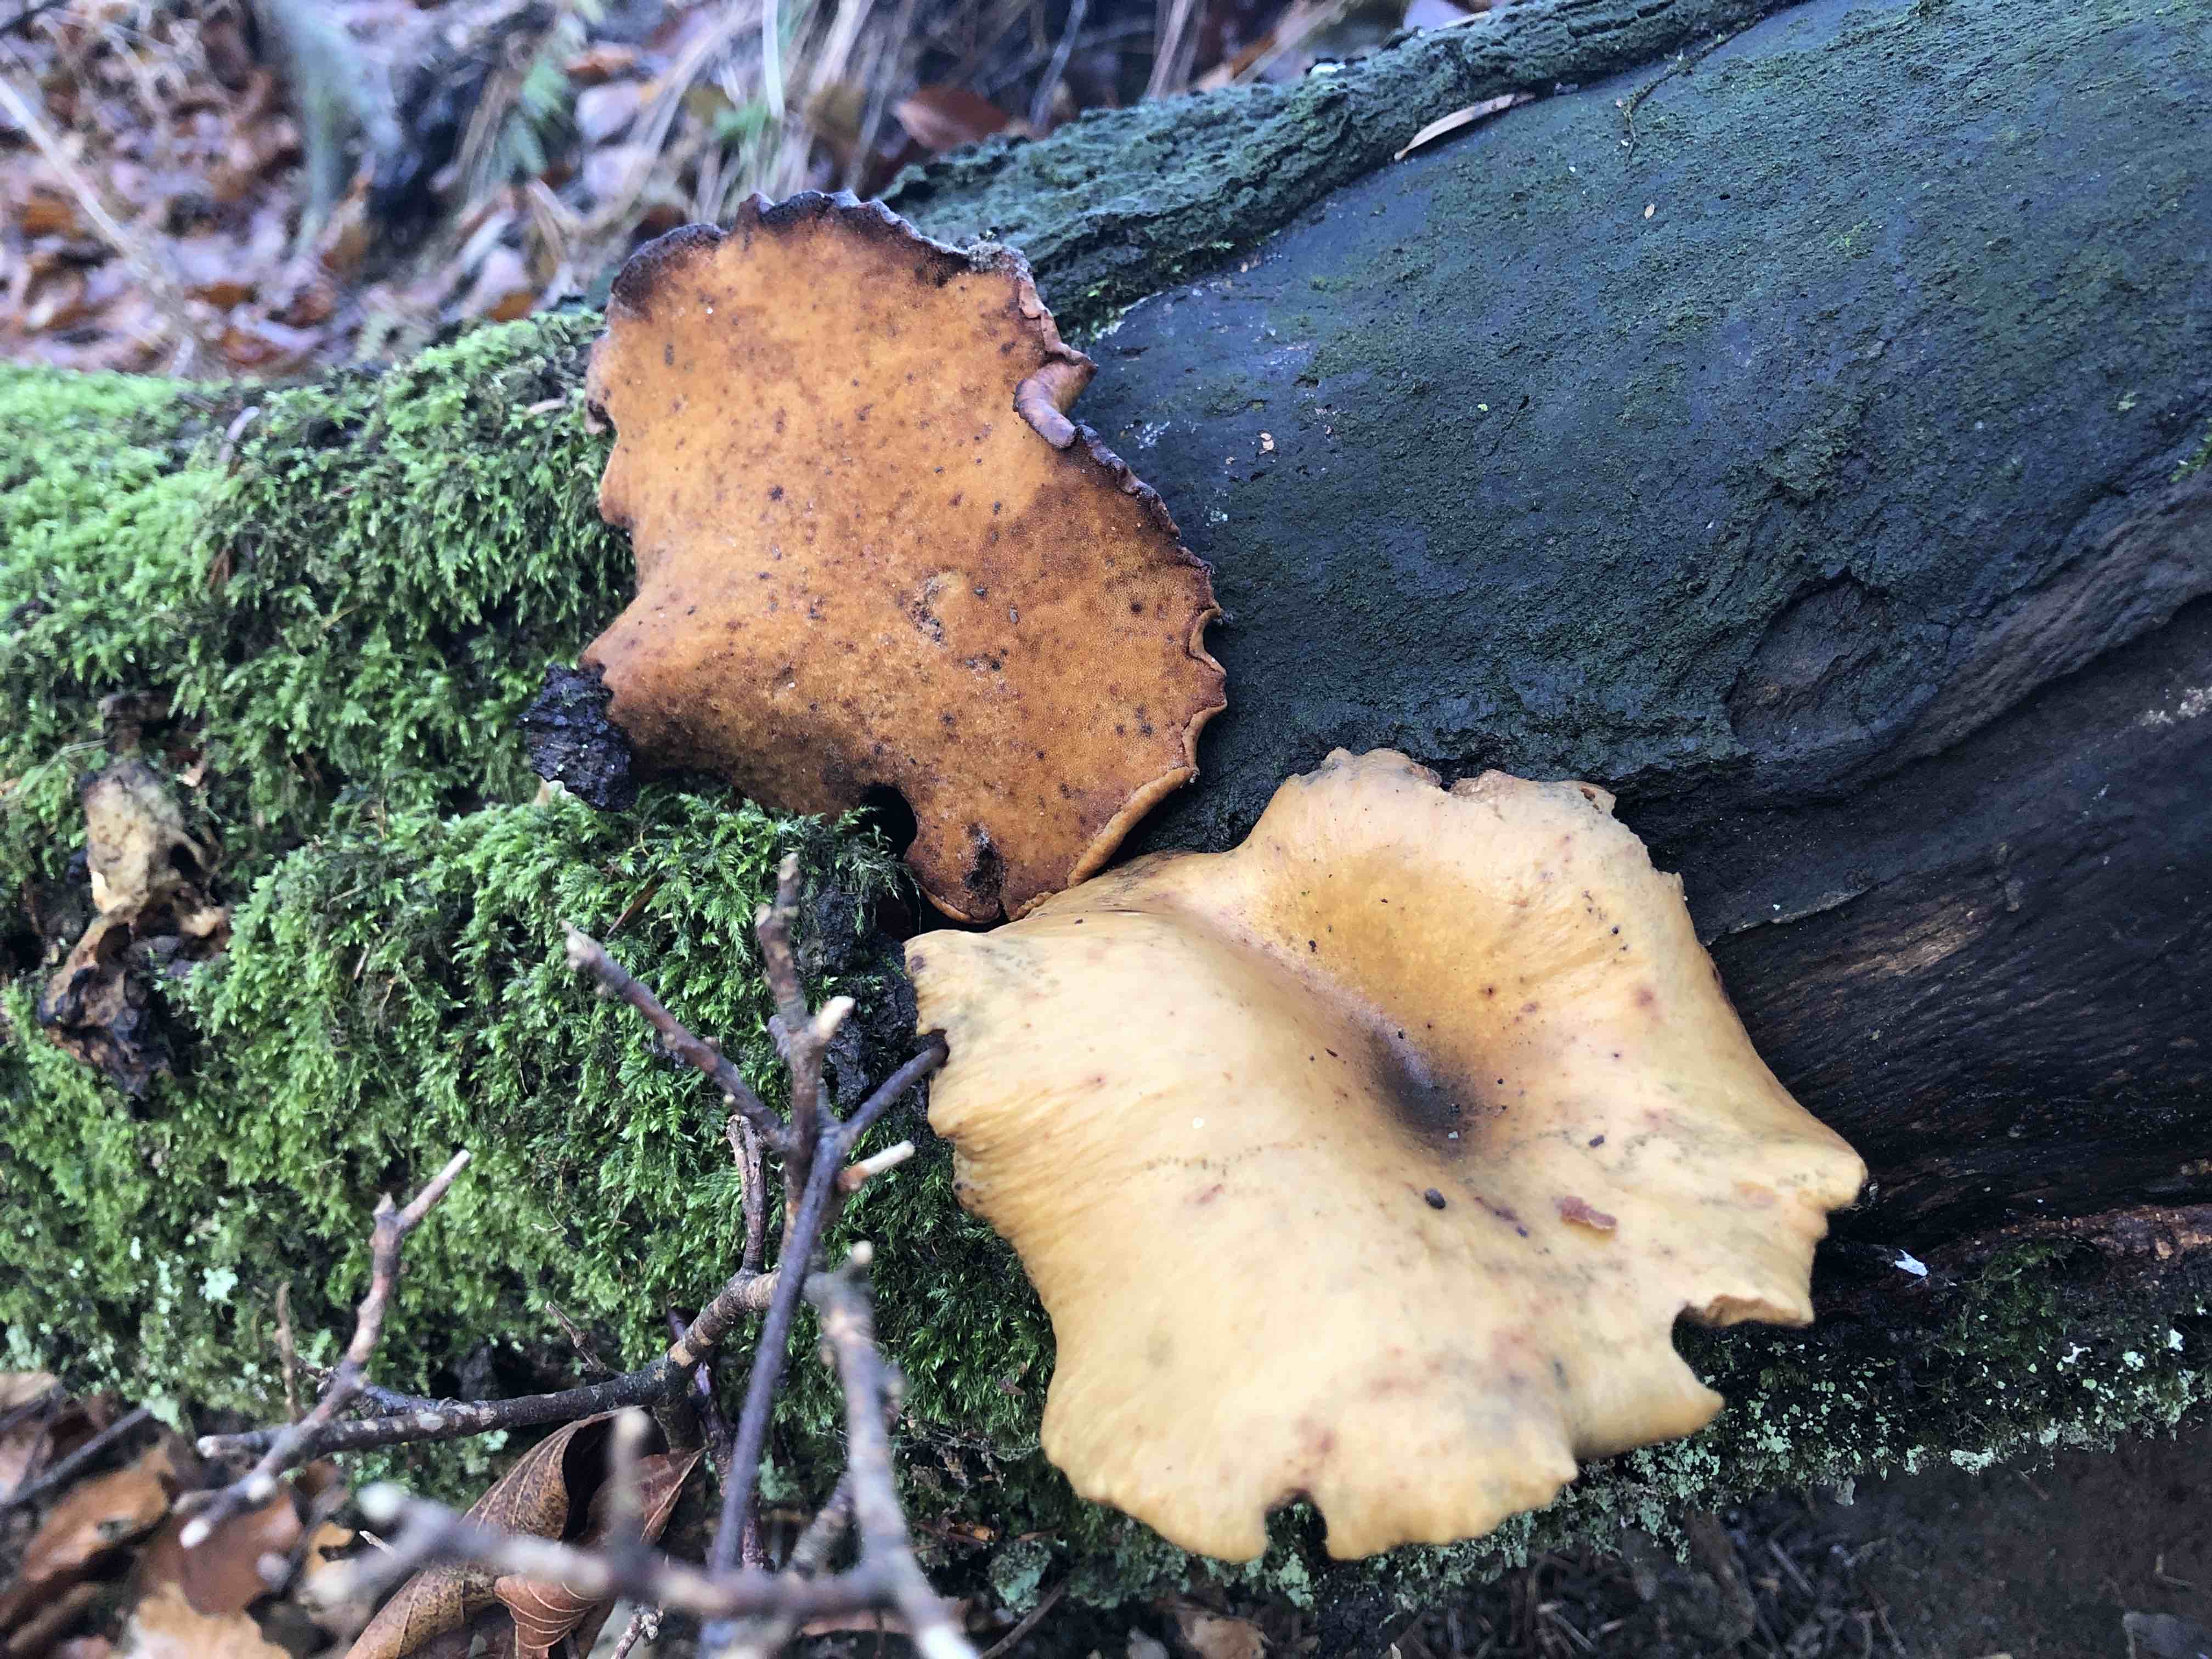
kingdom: Fungi
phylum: Basidiomycota
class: Agaricomycetes
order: Polyporales
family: Polyporaceae
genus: Cerioporus
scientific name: Cerioporus varius
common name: foranderlig stilkporesvamp
